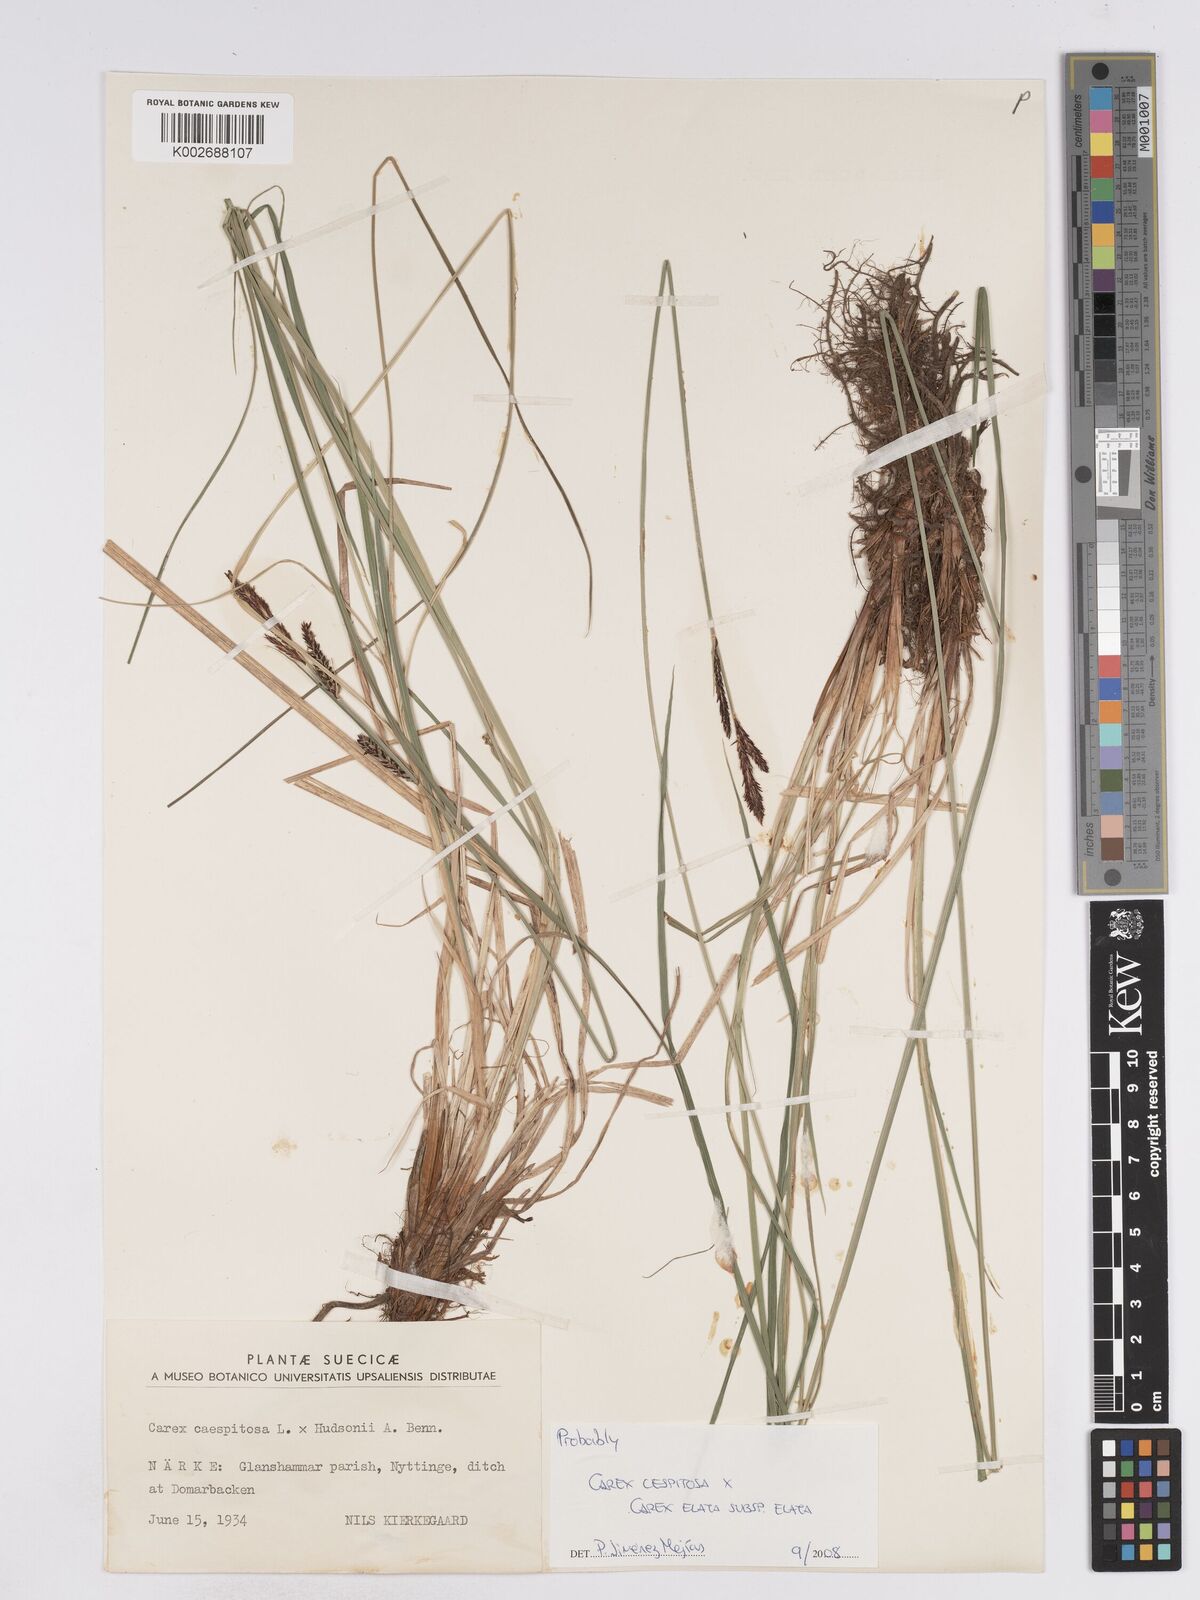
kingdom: Plantae
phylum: Tracheophyta
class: Liliopsida
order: Poales
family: Cyperaceae
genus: Carex
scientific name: Carex
